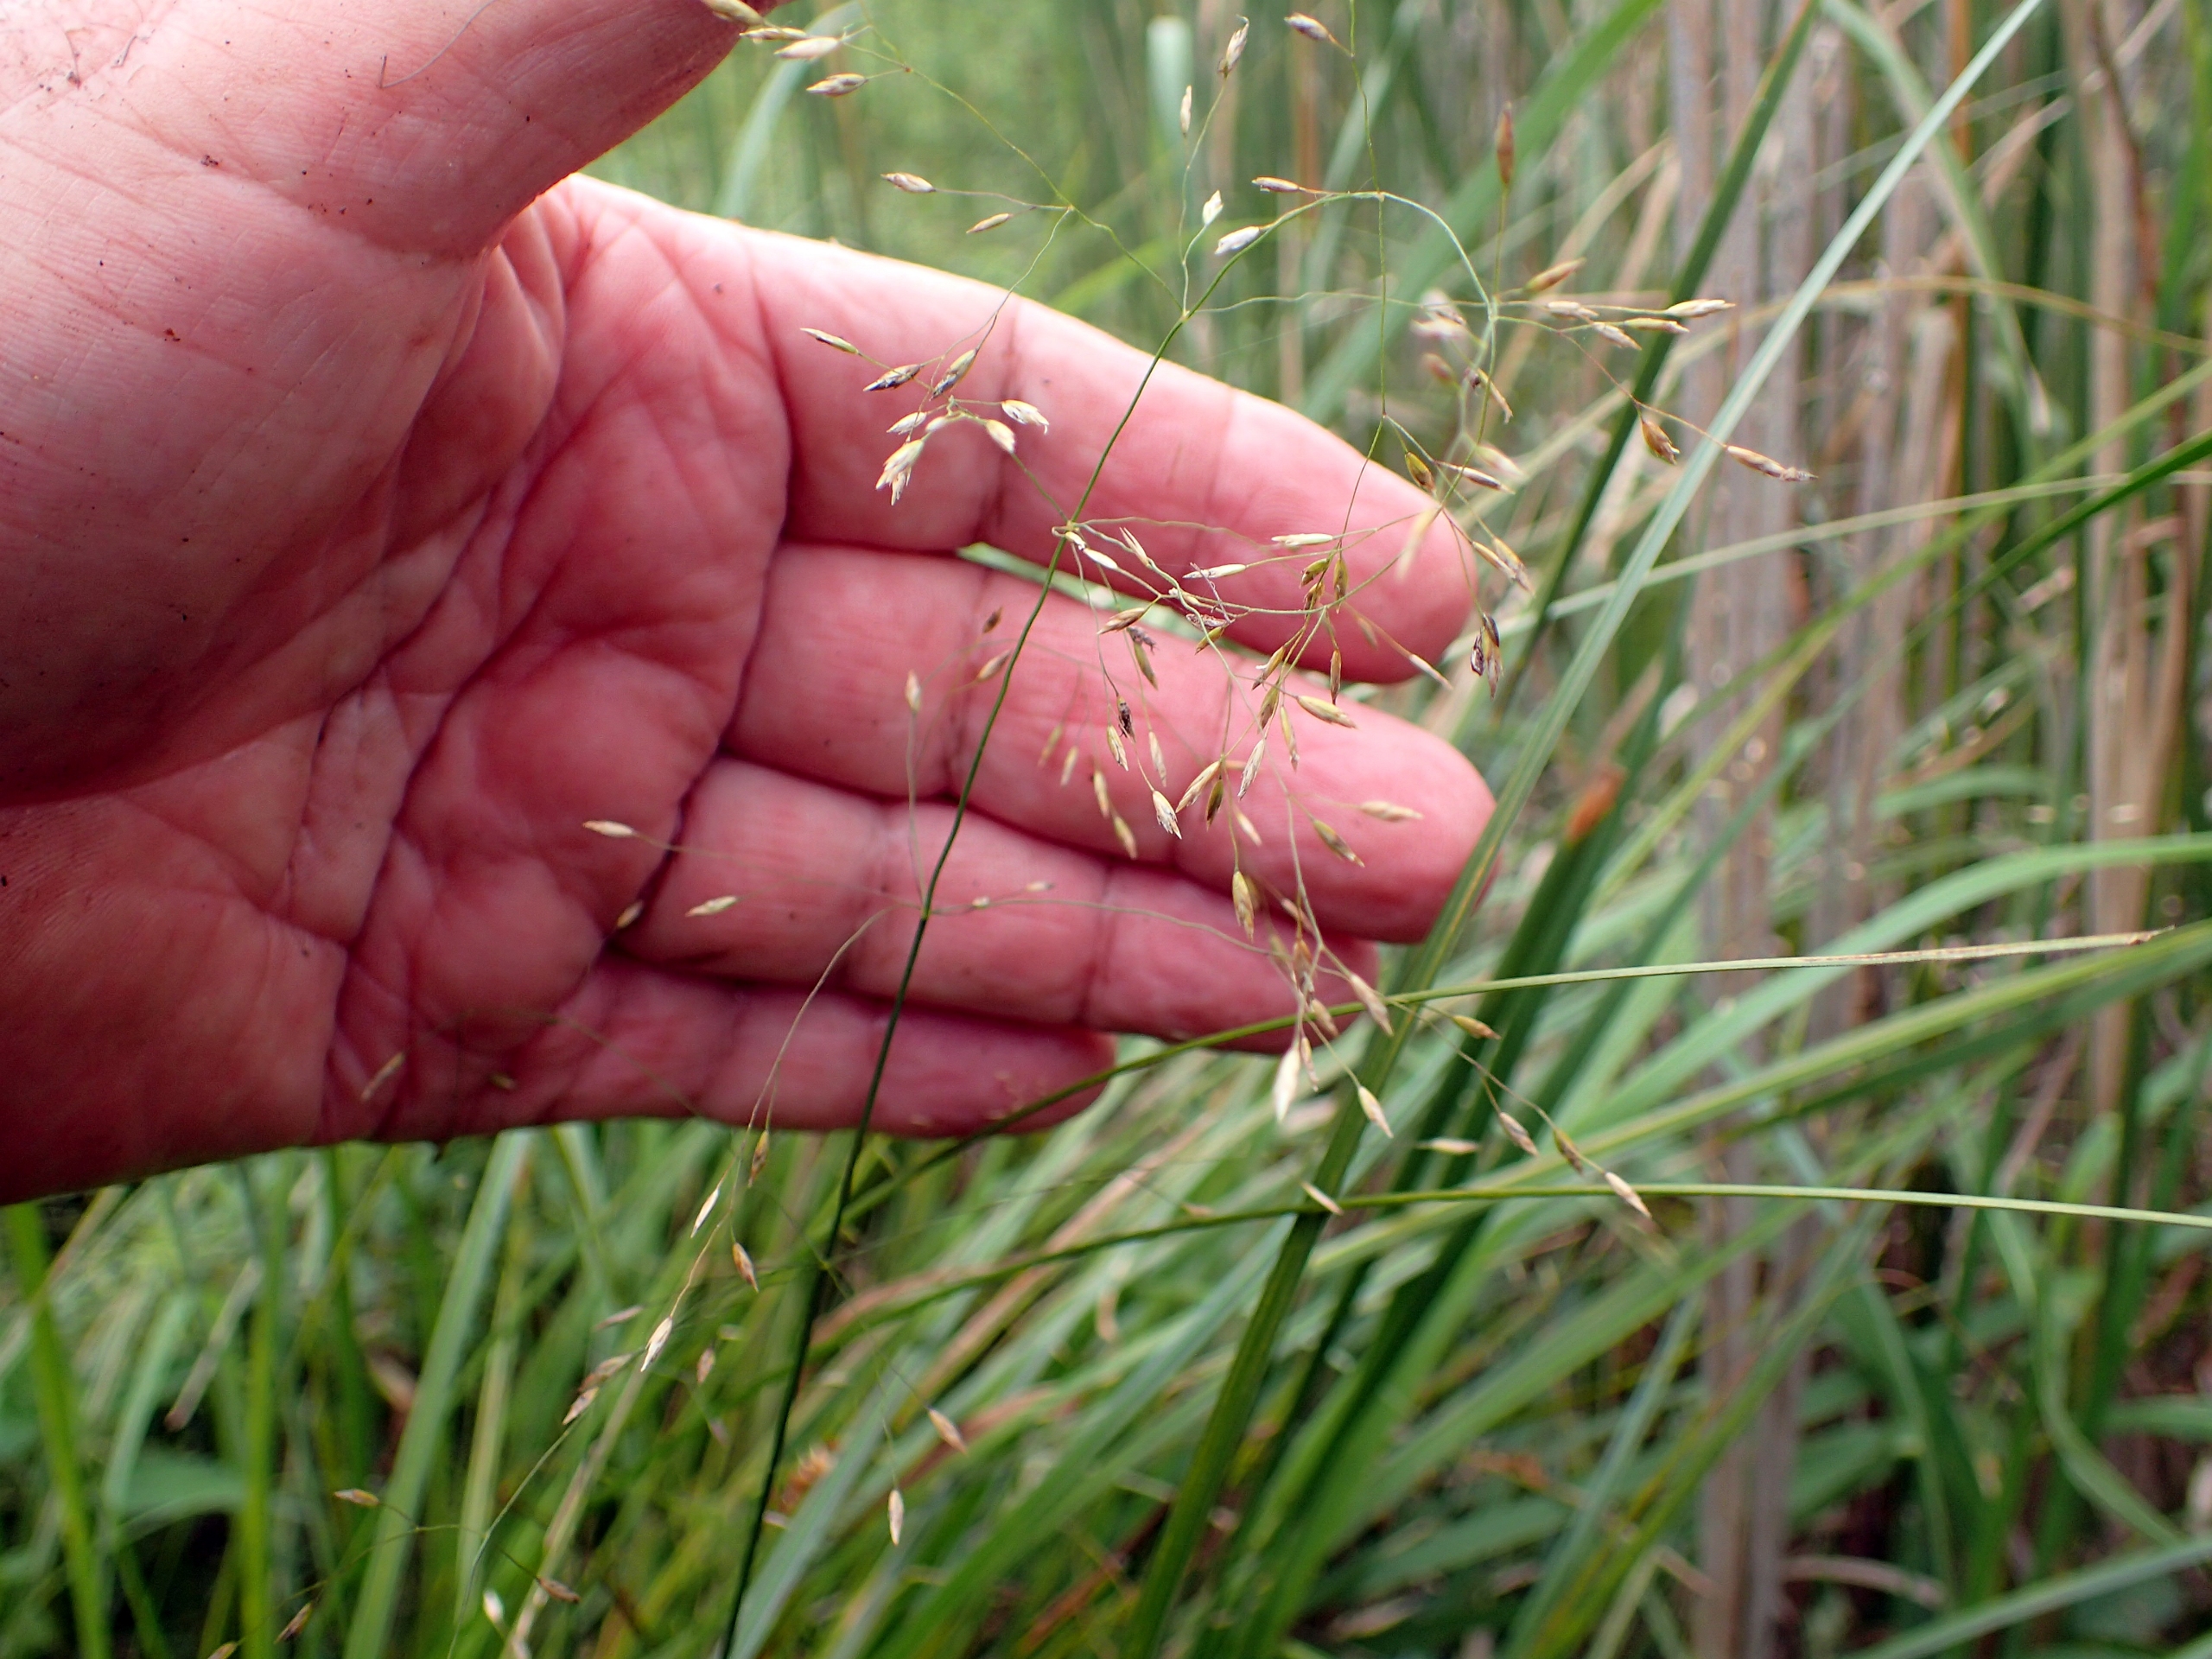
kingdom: Plantae
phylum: Tracheophyta
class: Liliopsida
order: Poales
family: Poaceae
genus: Poa
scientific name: Poa palustris
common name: Stortoppet rapgræs
